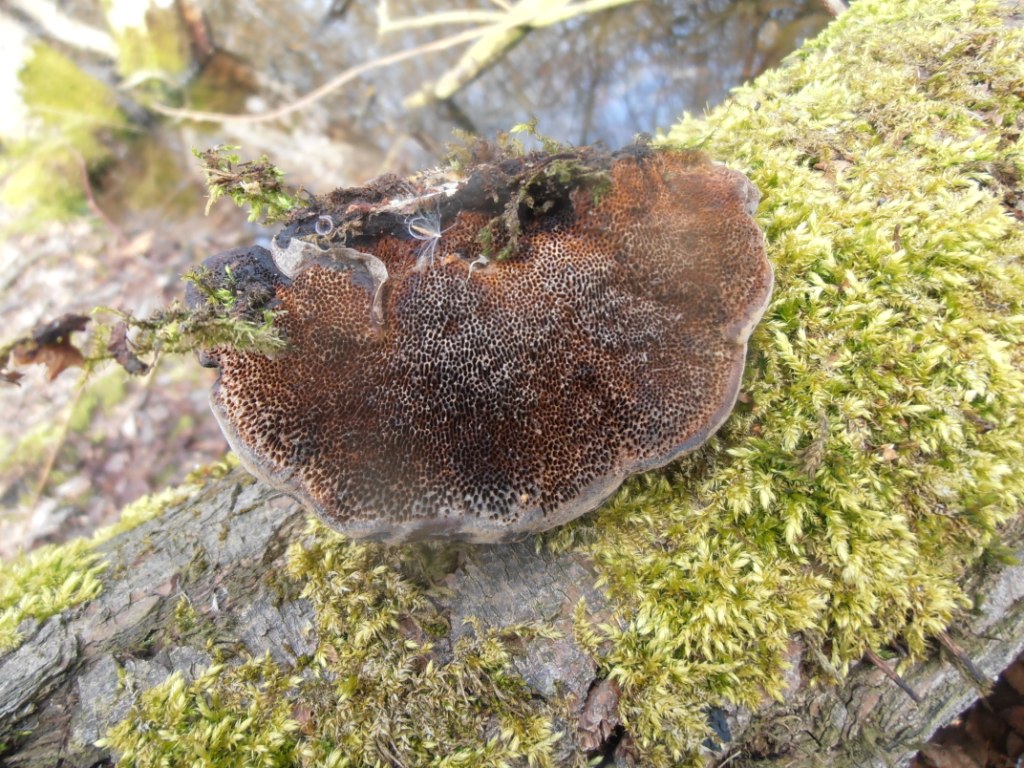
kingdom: Fungi
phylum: Basidiomycota
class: Agaricomycetes
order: Polyporales
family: Polyporaceae
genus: Daedaleopsis
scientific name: Daedaleopsis confragosa
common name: rødmende læderporesvamp
